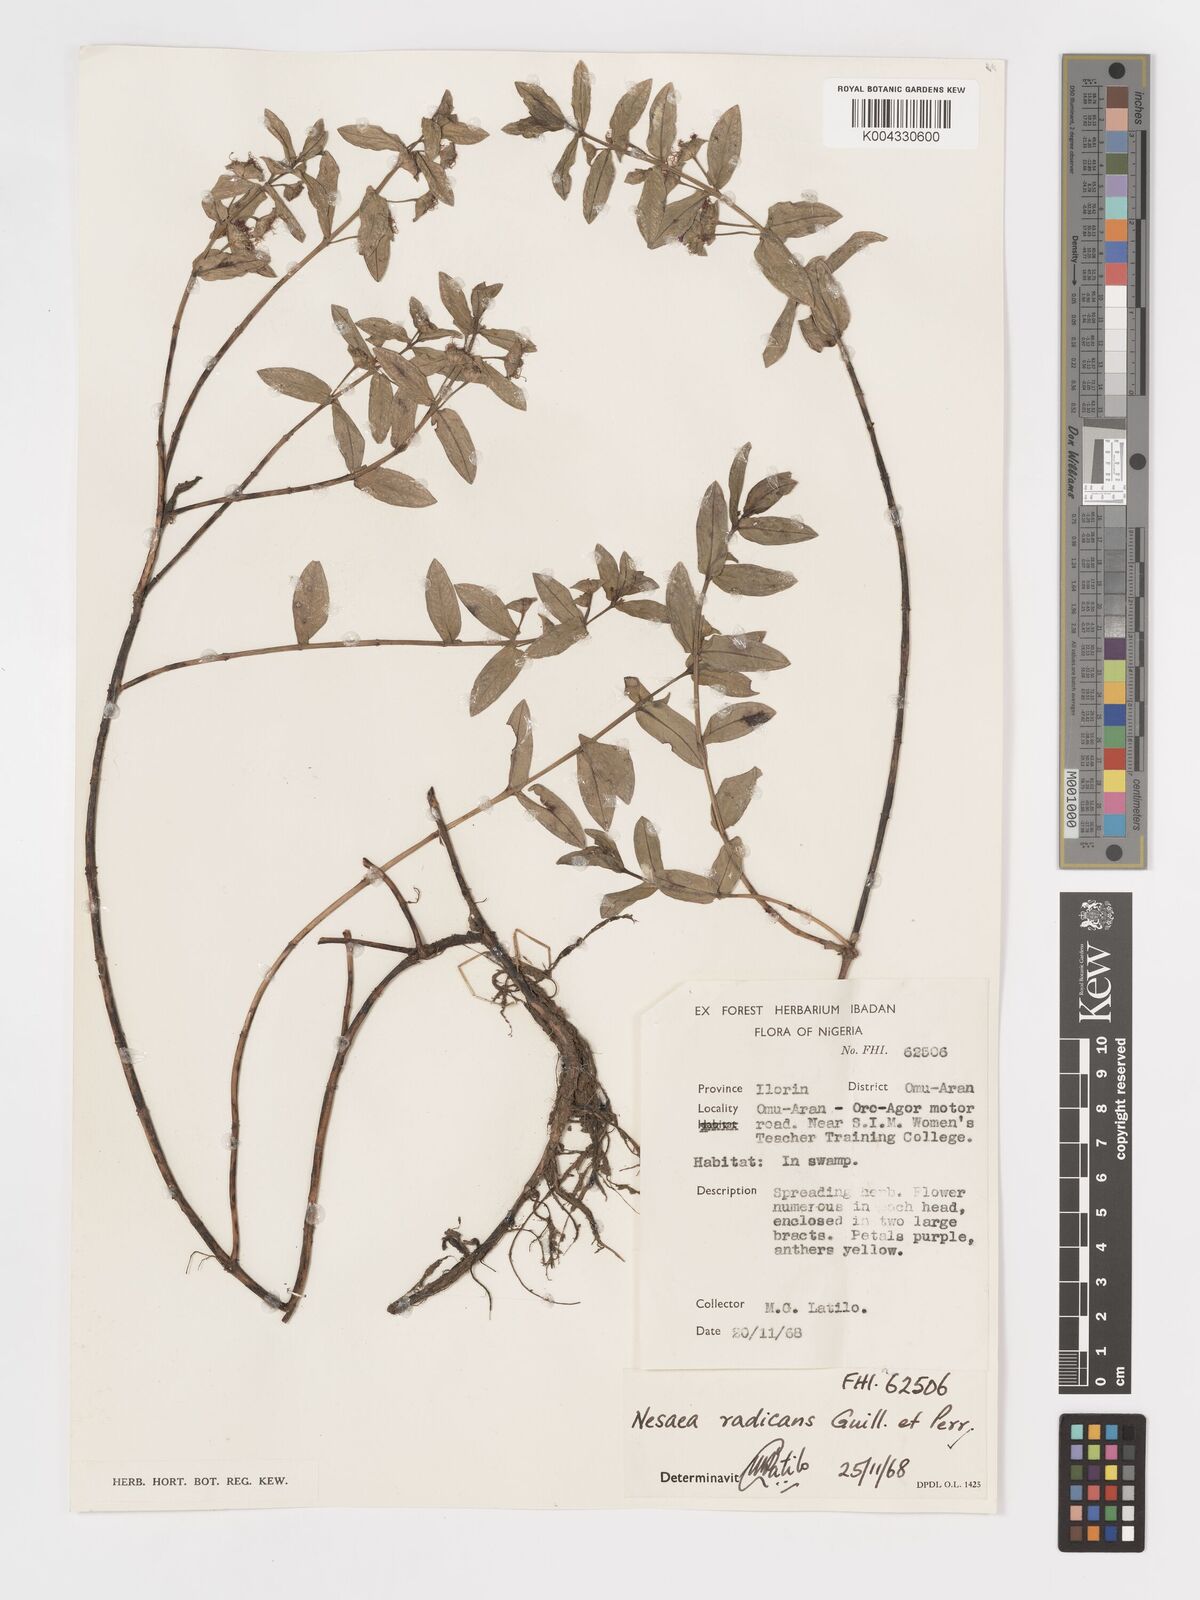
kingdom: Plantae
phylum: Tracheophyta
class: Magnoliopsida
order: Myrtales
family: Lythraceae
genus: Ammannia
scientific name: Ammannia radicans
